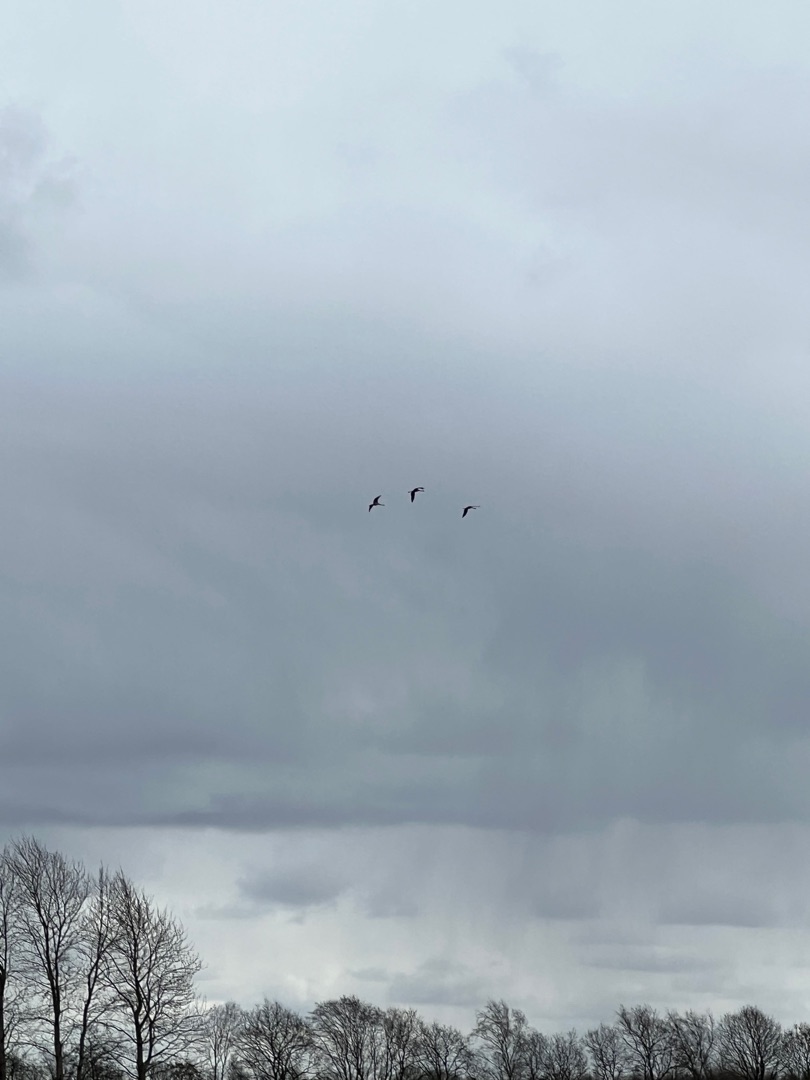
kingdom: Animalia
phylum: Chordata
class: Aves
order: Gruiformes
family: Gruidae
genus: Grus
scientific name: Grus grus
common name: Trane
